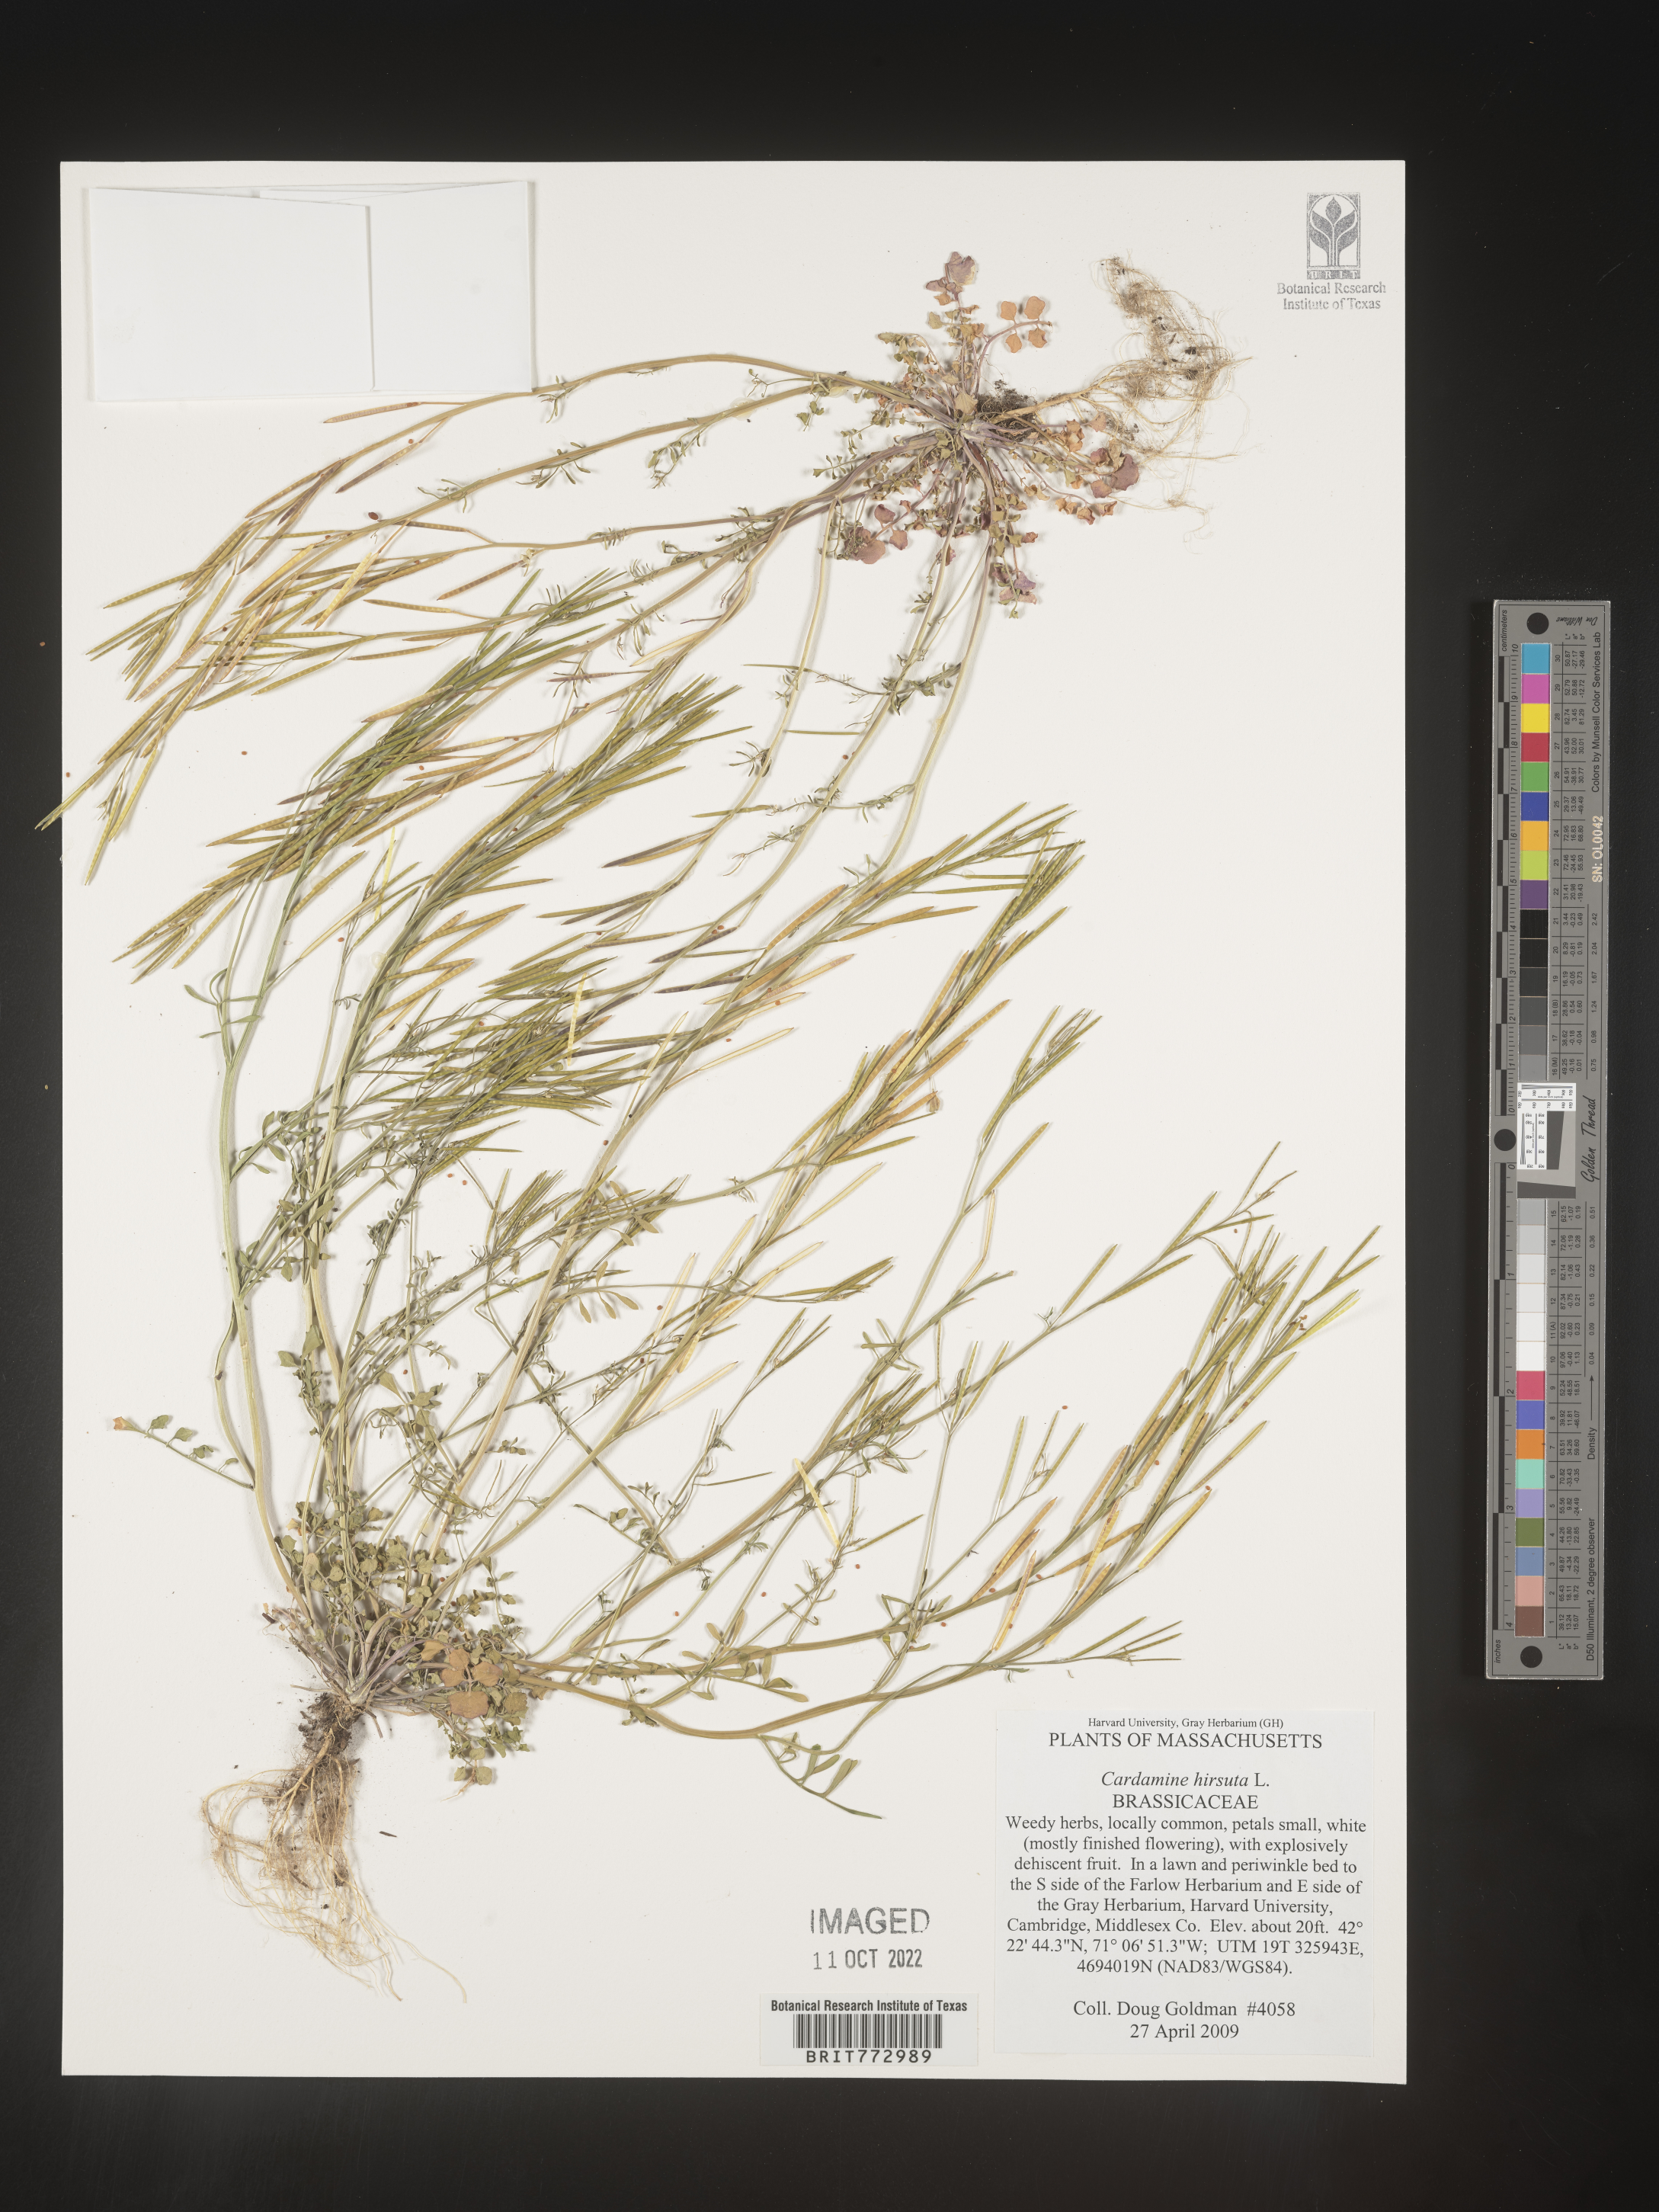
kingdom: Plantae
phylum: Tracheophyta
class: Magnoliopsida
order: Brassicales
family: Brassicaceae
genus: Cardamine
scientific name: Cardamine hirsuta
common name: Hairy bittercress
